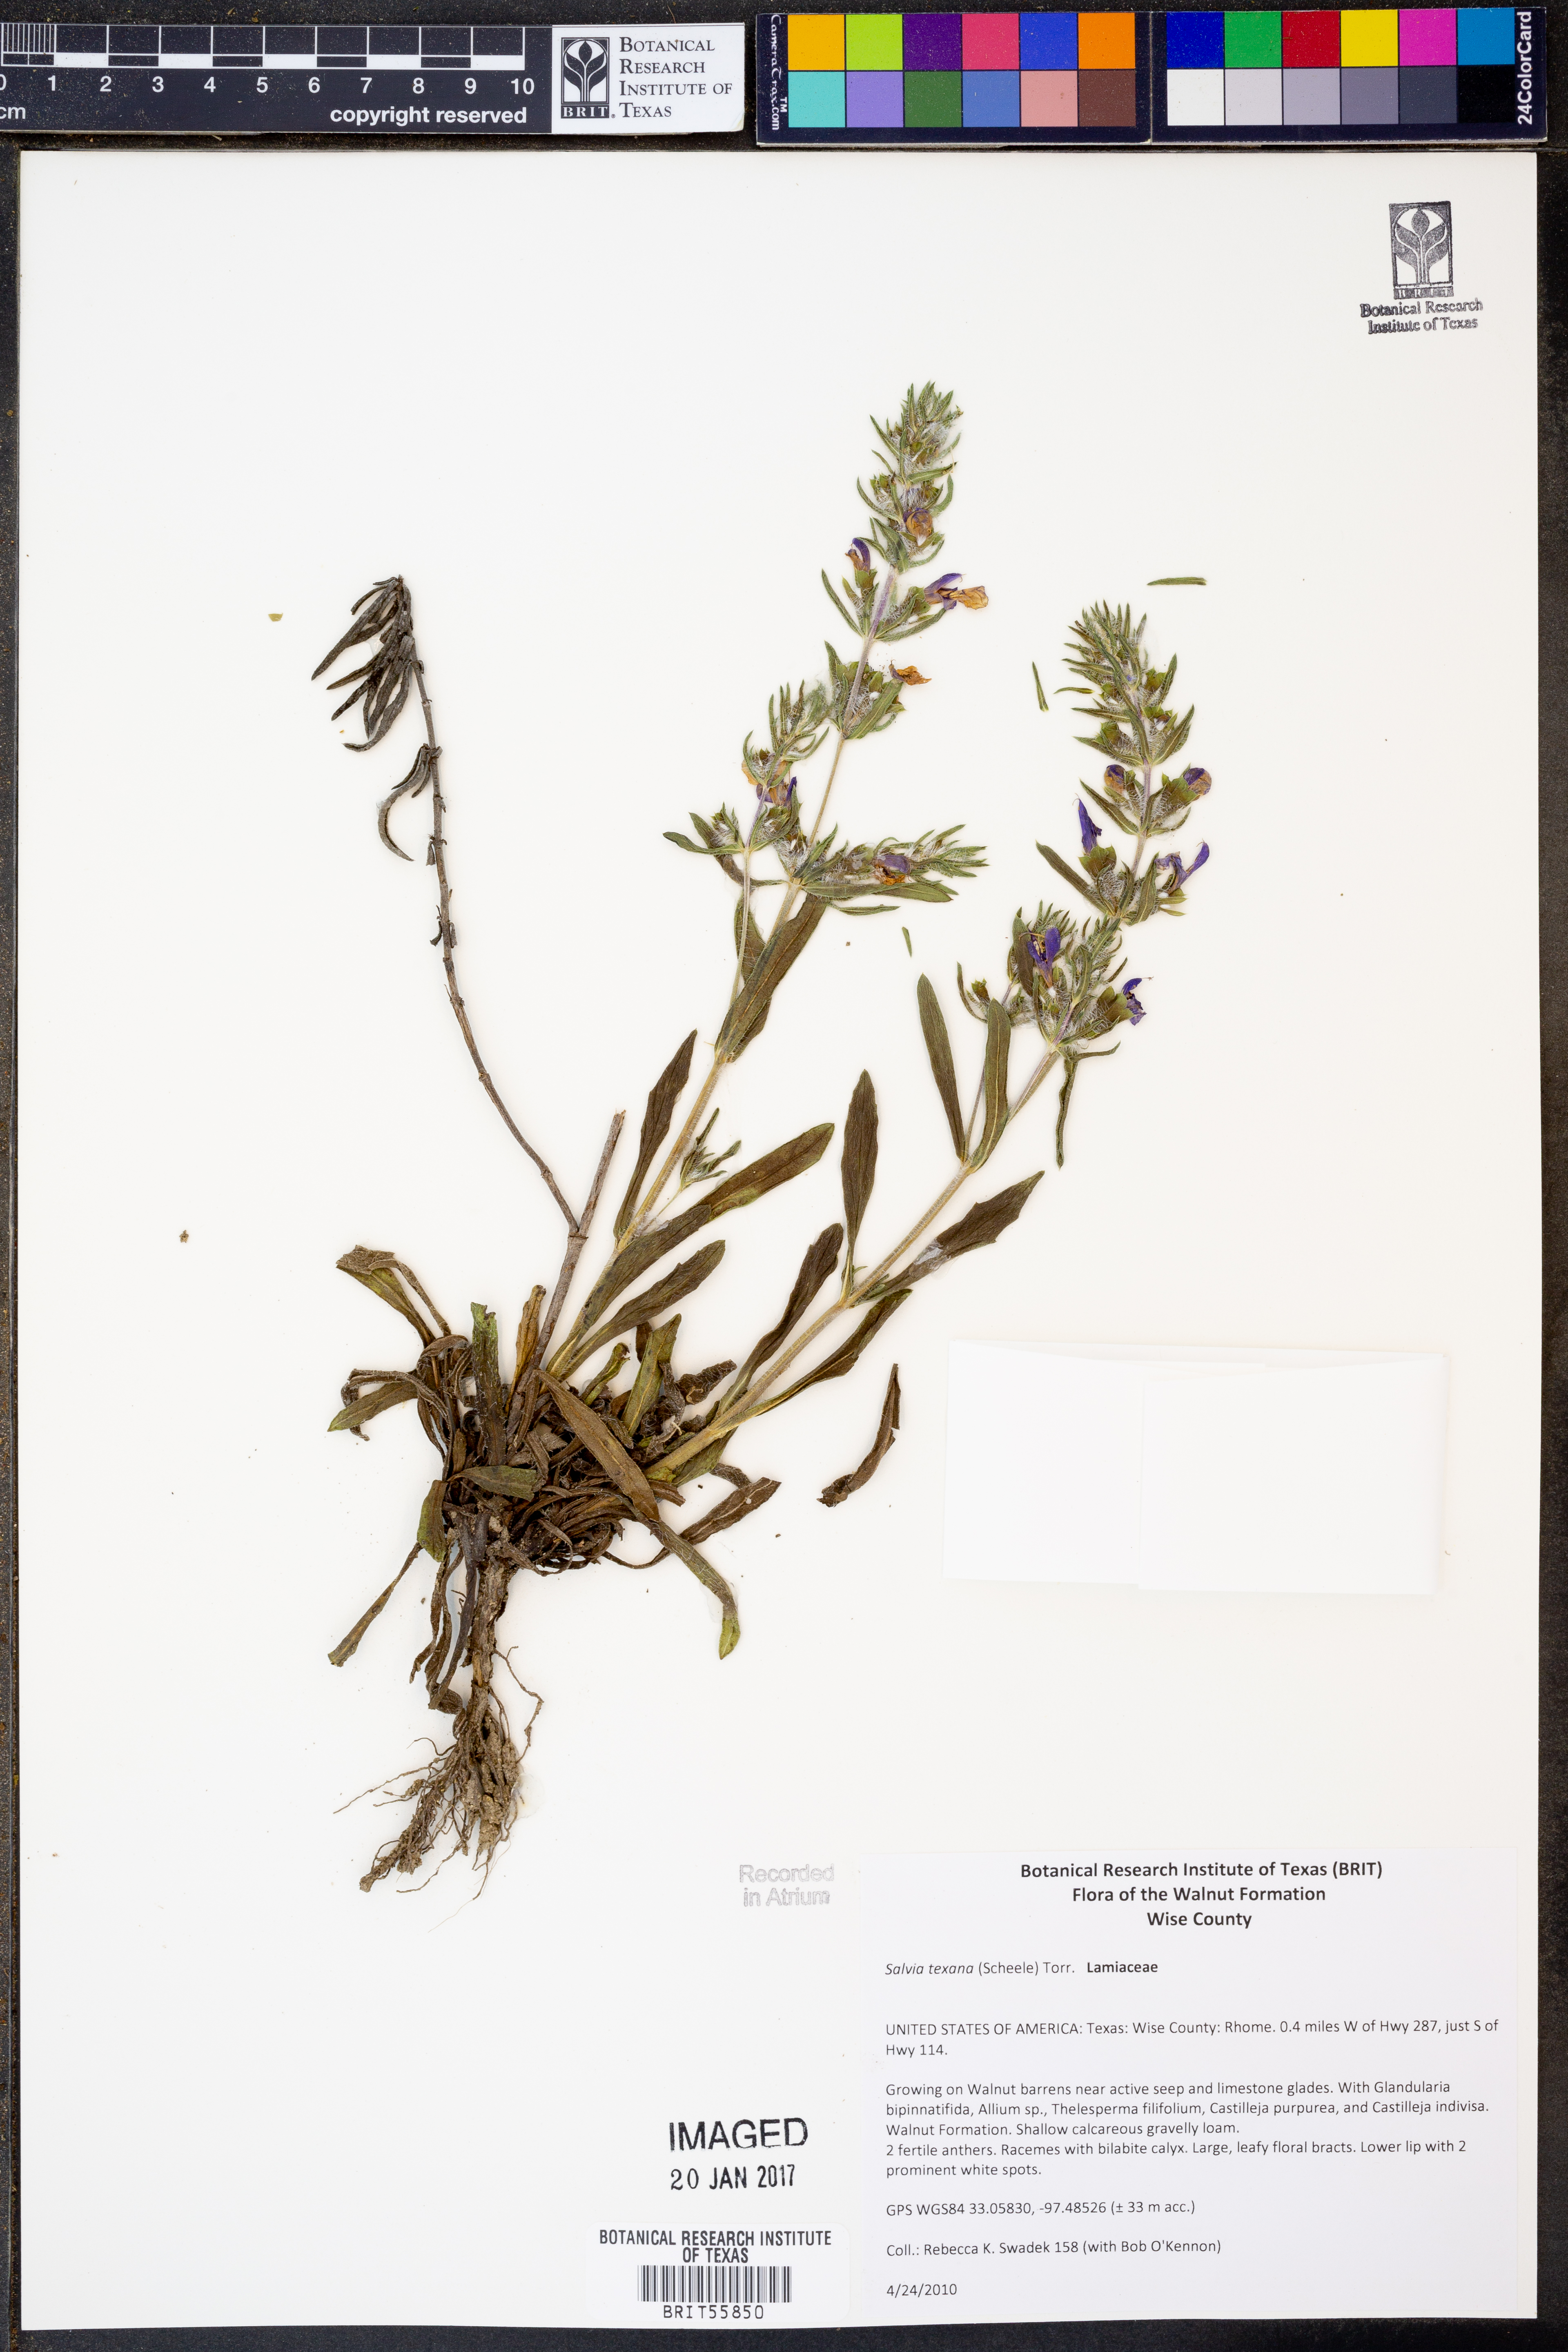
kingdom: Plantae
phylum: Tracheophyta
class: Magnoliopsida
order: Lamiales
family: Lamiaceae
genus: Salvia
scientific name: Salvia texana
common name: Texas sage
